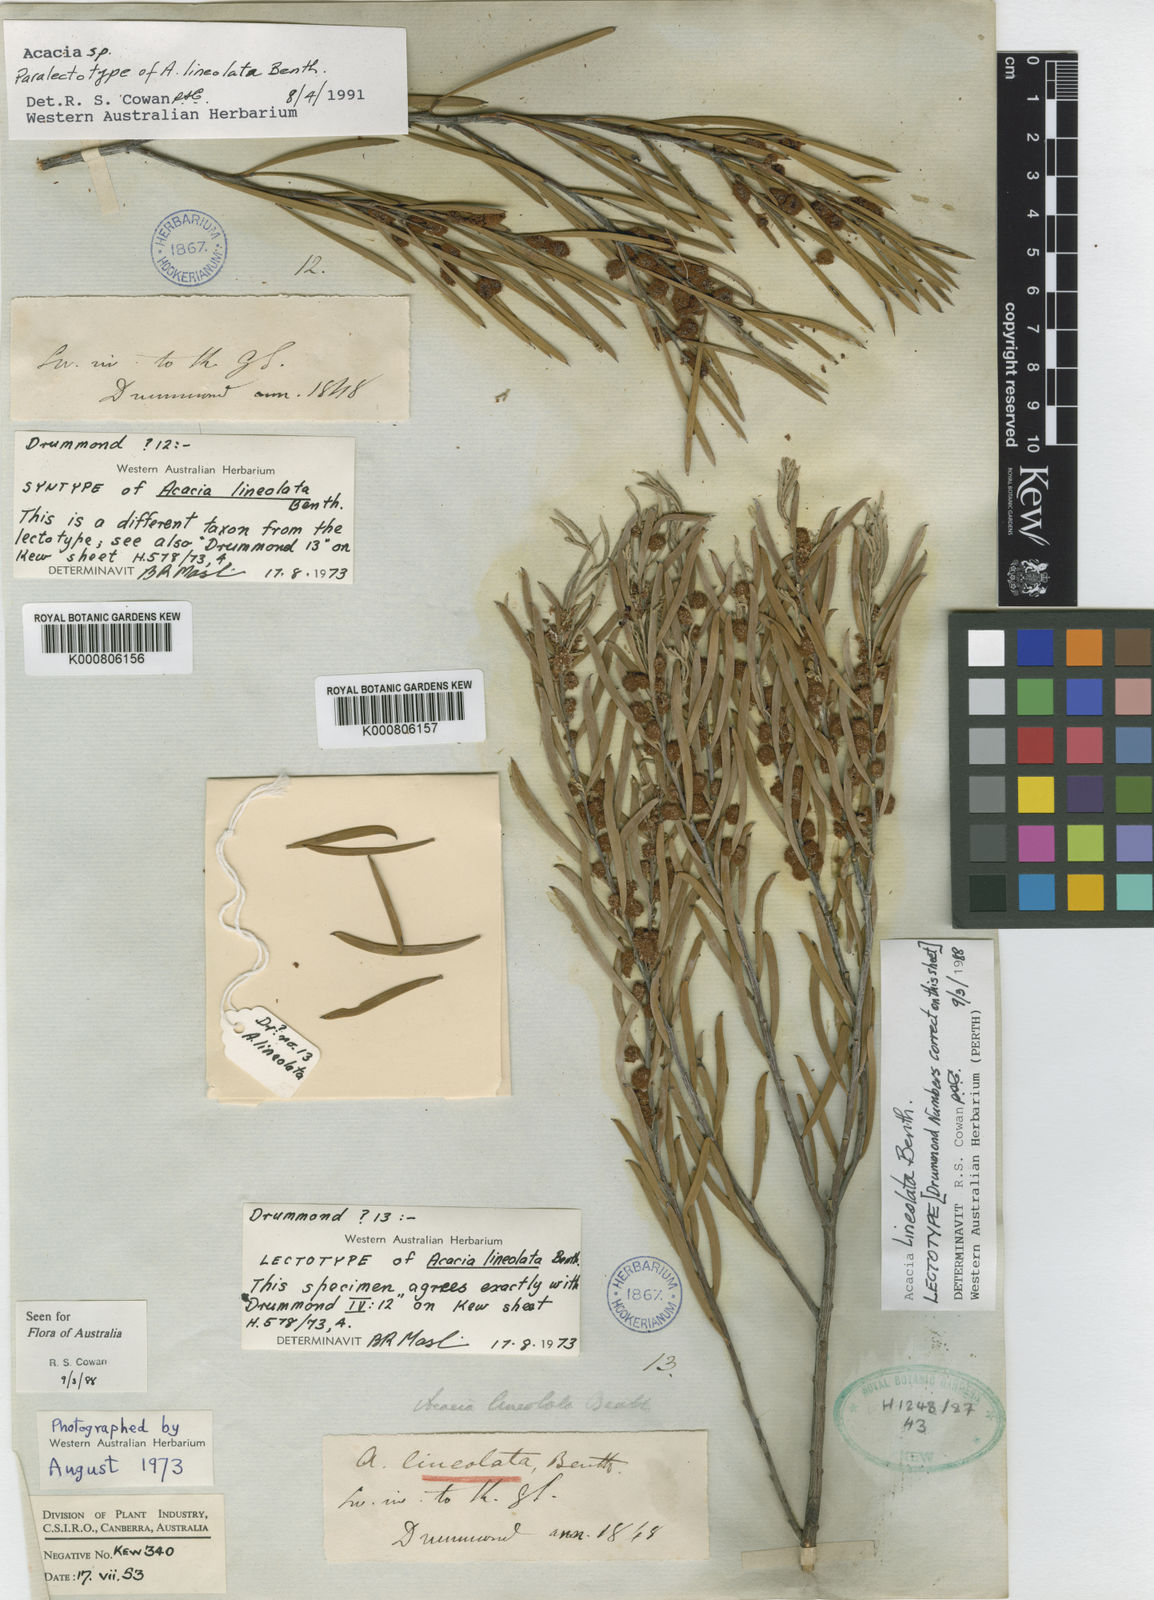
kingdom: Plantae
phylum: Tracheophyta
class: Magnoliopsida
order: Fabales
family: Fabaceae
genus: Acacia
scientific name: Acacia lineolata
